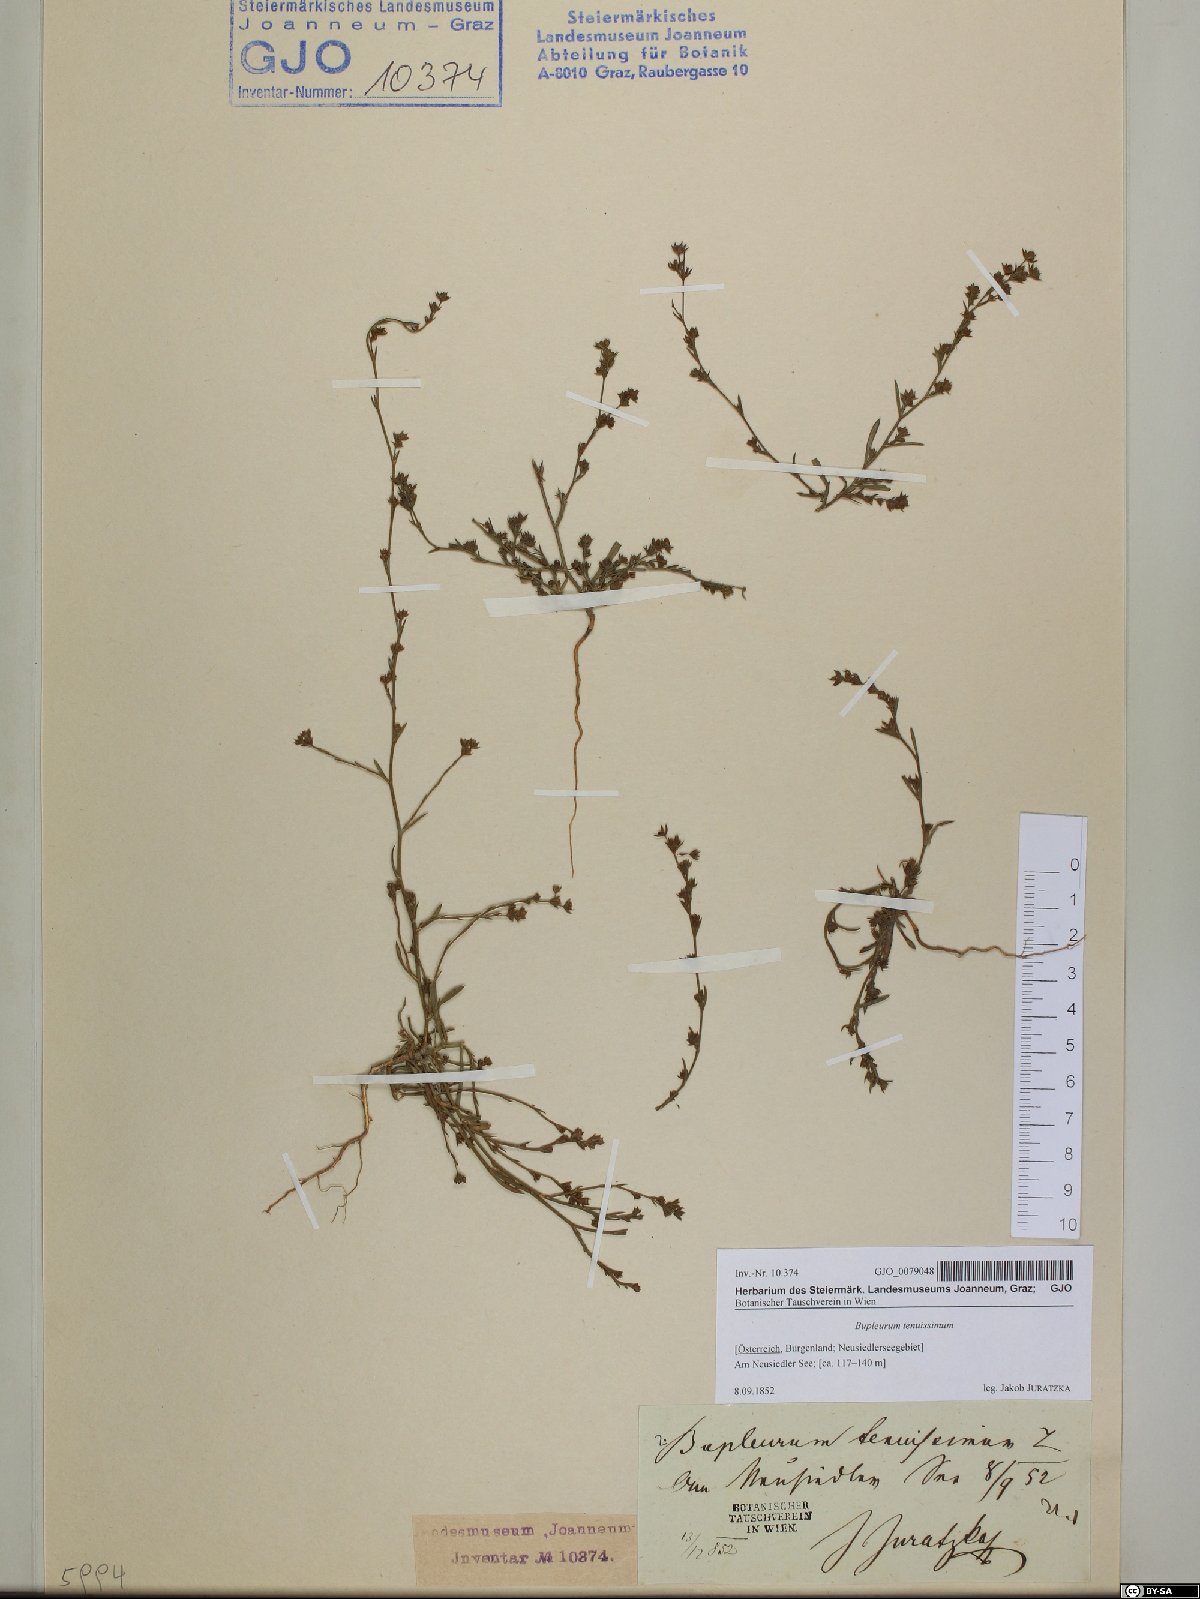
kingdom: Plantae
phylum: Tracheophyta
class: Magnoliopsida
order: Apiales
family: Apiaceae
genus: Bupleurum
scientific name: Bupleurum tenuissimum
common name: Slender hare's-ear
